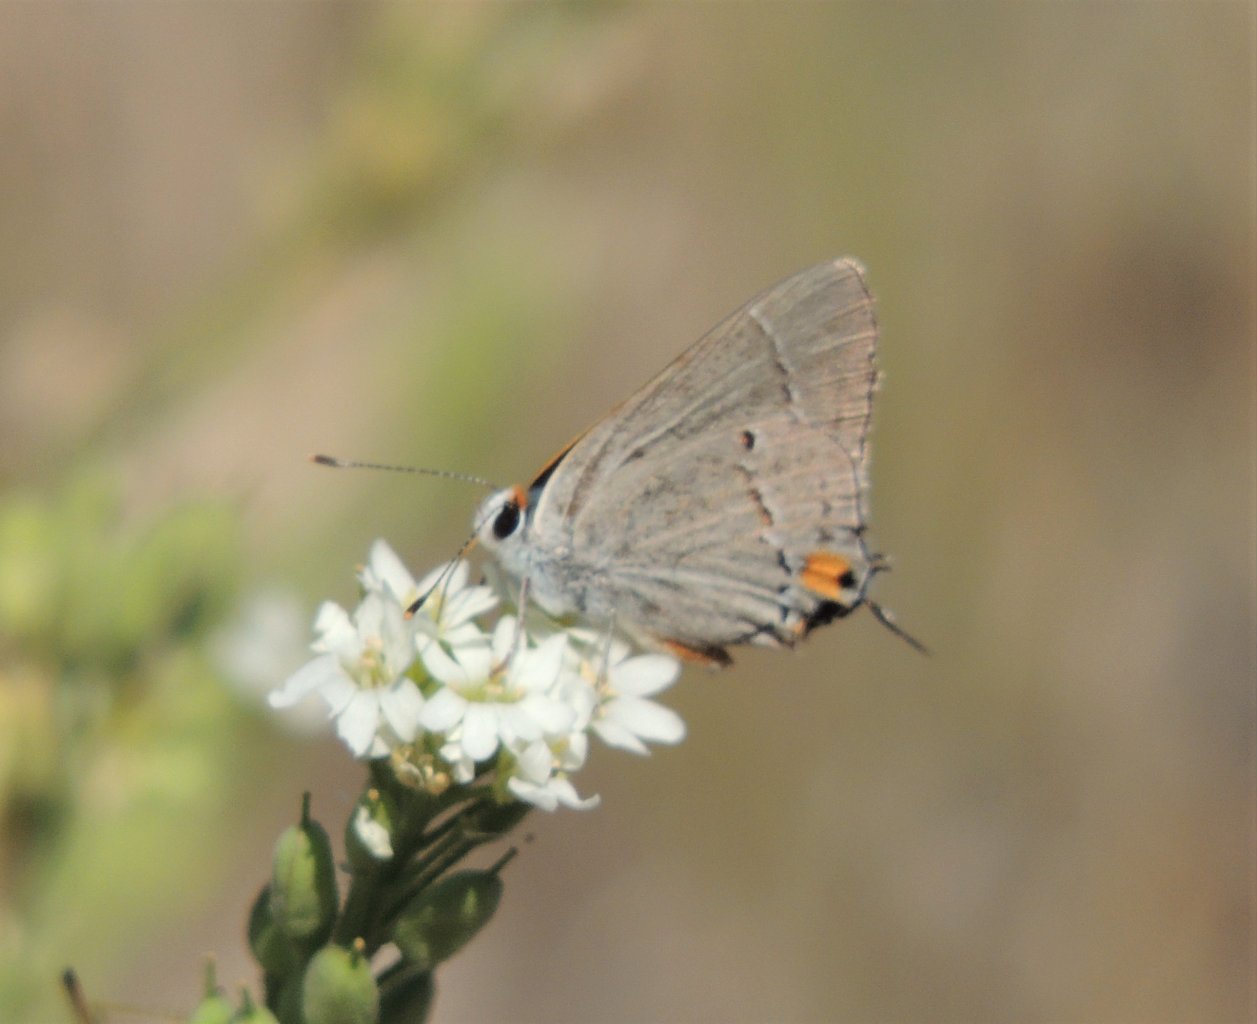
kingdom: Animalia
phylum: Arthropoda
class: Insecta
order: Lepidoptera
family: Lycaenidae
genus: Strymon
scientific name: Strymon melinus
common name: Gray Hairstreak
